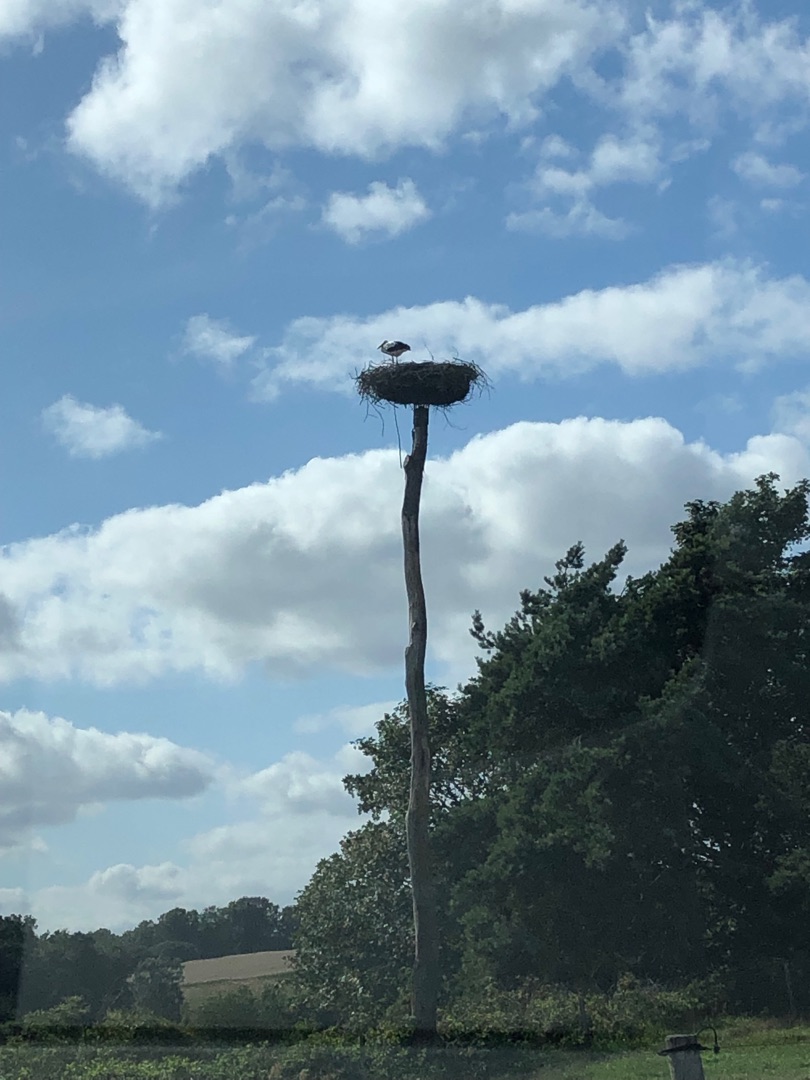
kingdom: Animalia
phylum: Chordata
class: Aves
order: Ciconiiformes
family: Ciconiidae
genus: Ciconia
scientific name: Ciconia ciconia
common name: Hvid stork
